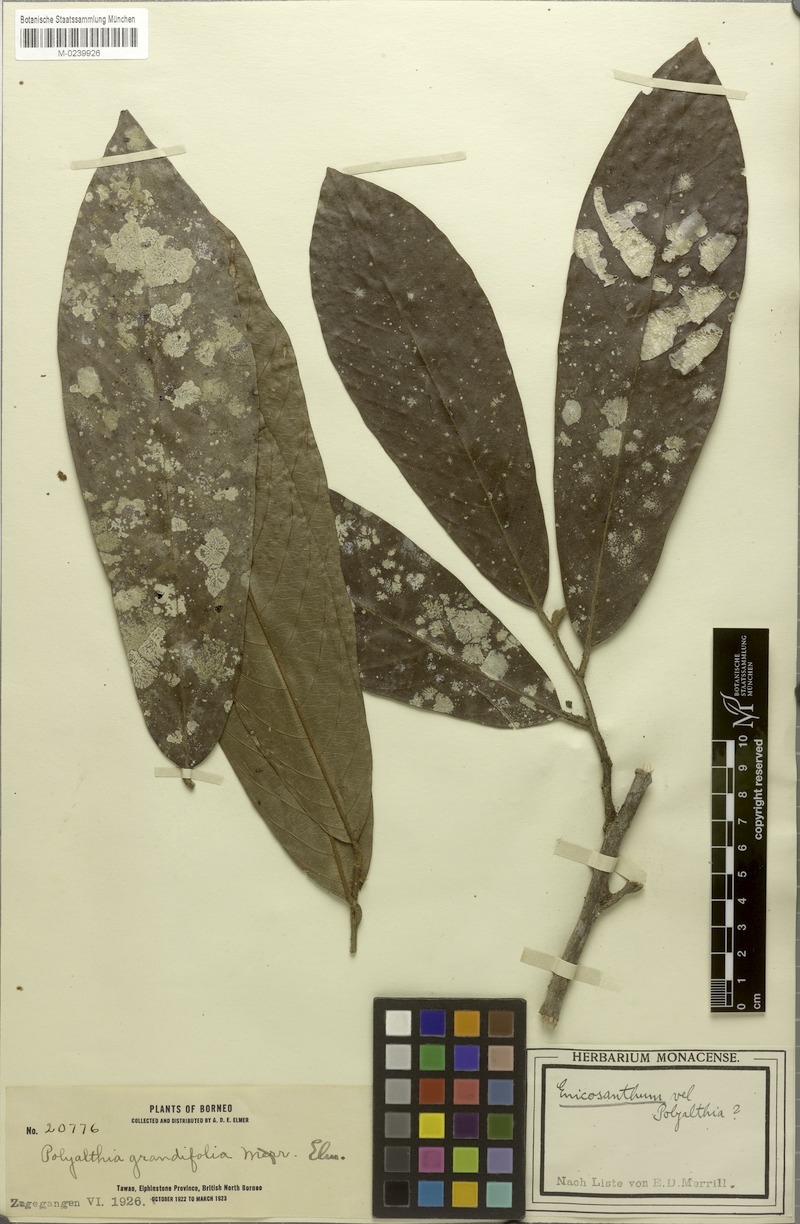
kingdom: Plantae
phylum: Tracheophyta
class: Magnoliopsida
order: Magnoliales
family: Annonaceae
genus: Enicosanthum
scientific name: Enicosanthum grandifolium
